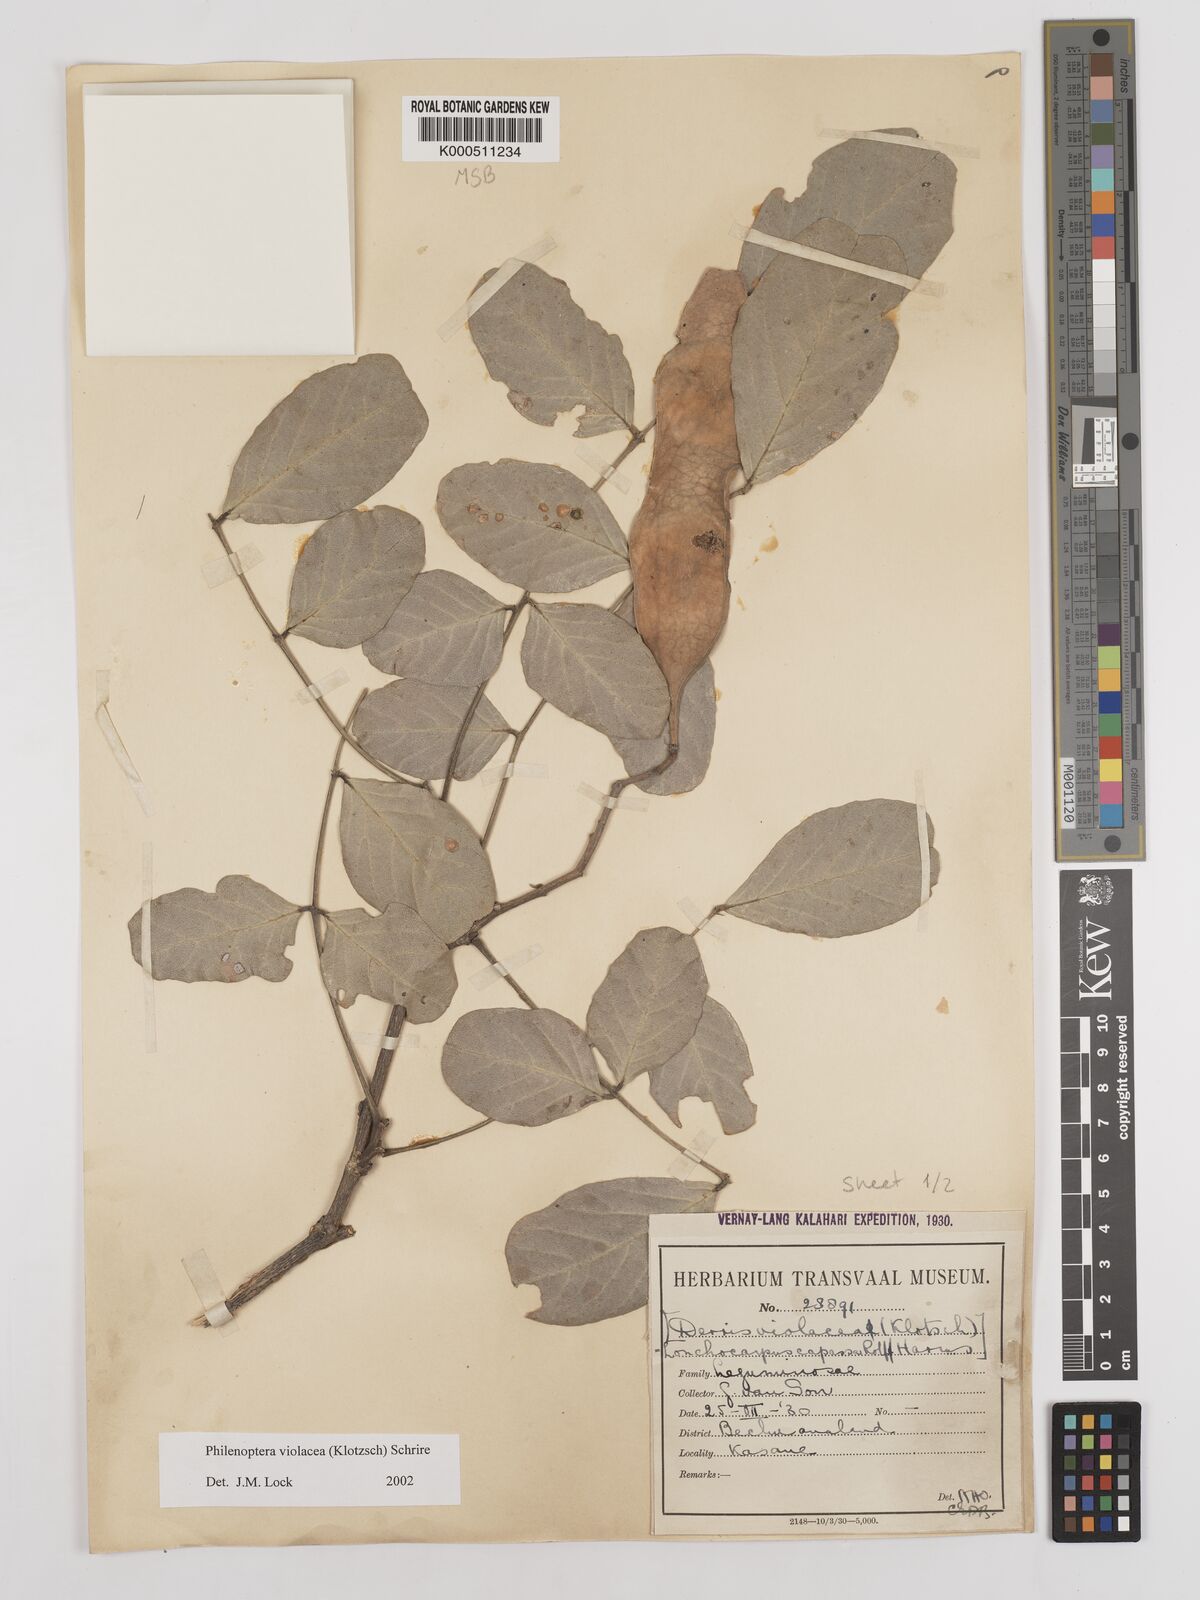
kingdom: Plantae
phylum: Tracheophyta
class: Magnoliopsida
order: Fabales
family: Fabaceae
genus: Philenoptera
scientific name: Philenoptera violacea
